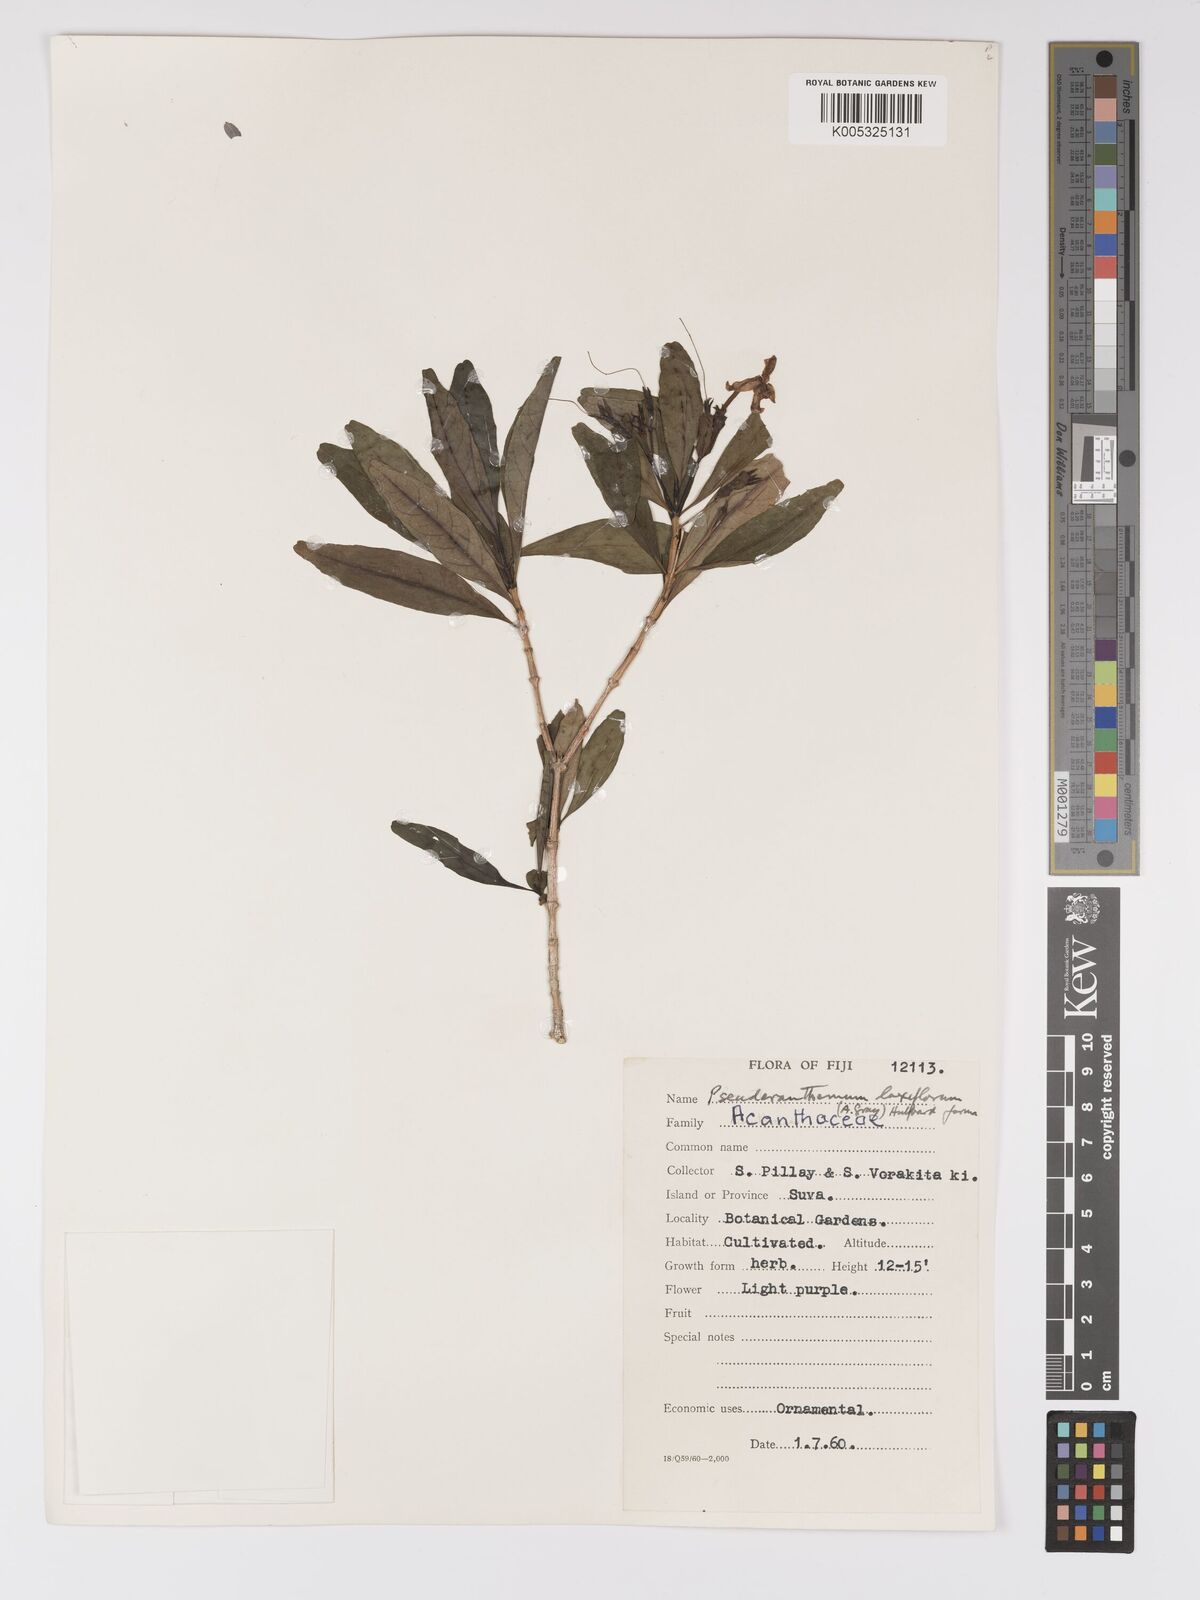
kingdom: Plantae
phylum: Tracheophyta
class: Magnoliopsida
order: Lamiales
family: Acanthaceae
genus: Pseuderanthemum
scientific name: Pseuderanthemum laxiflorum
